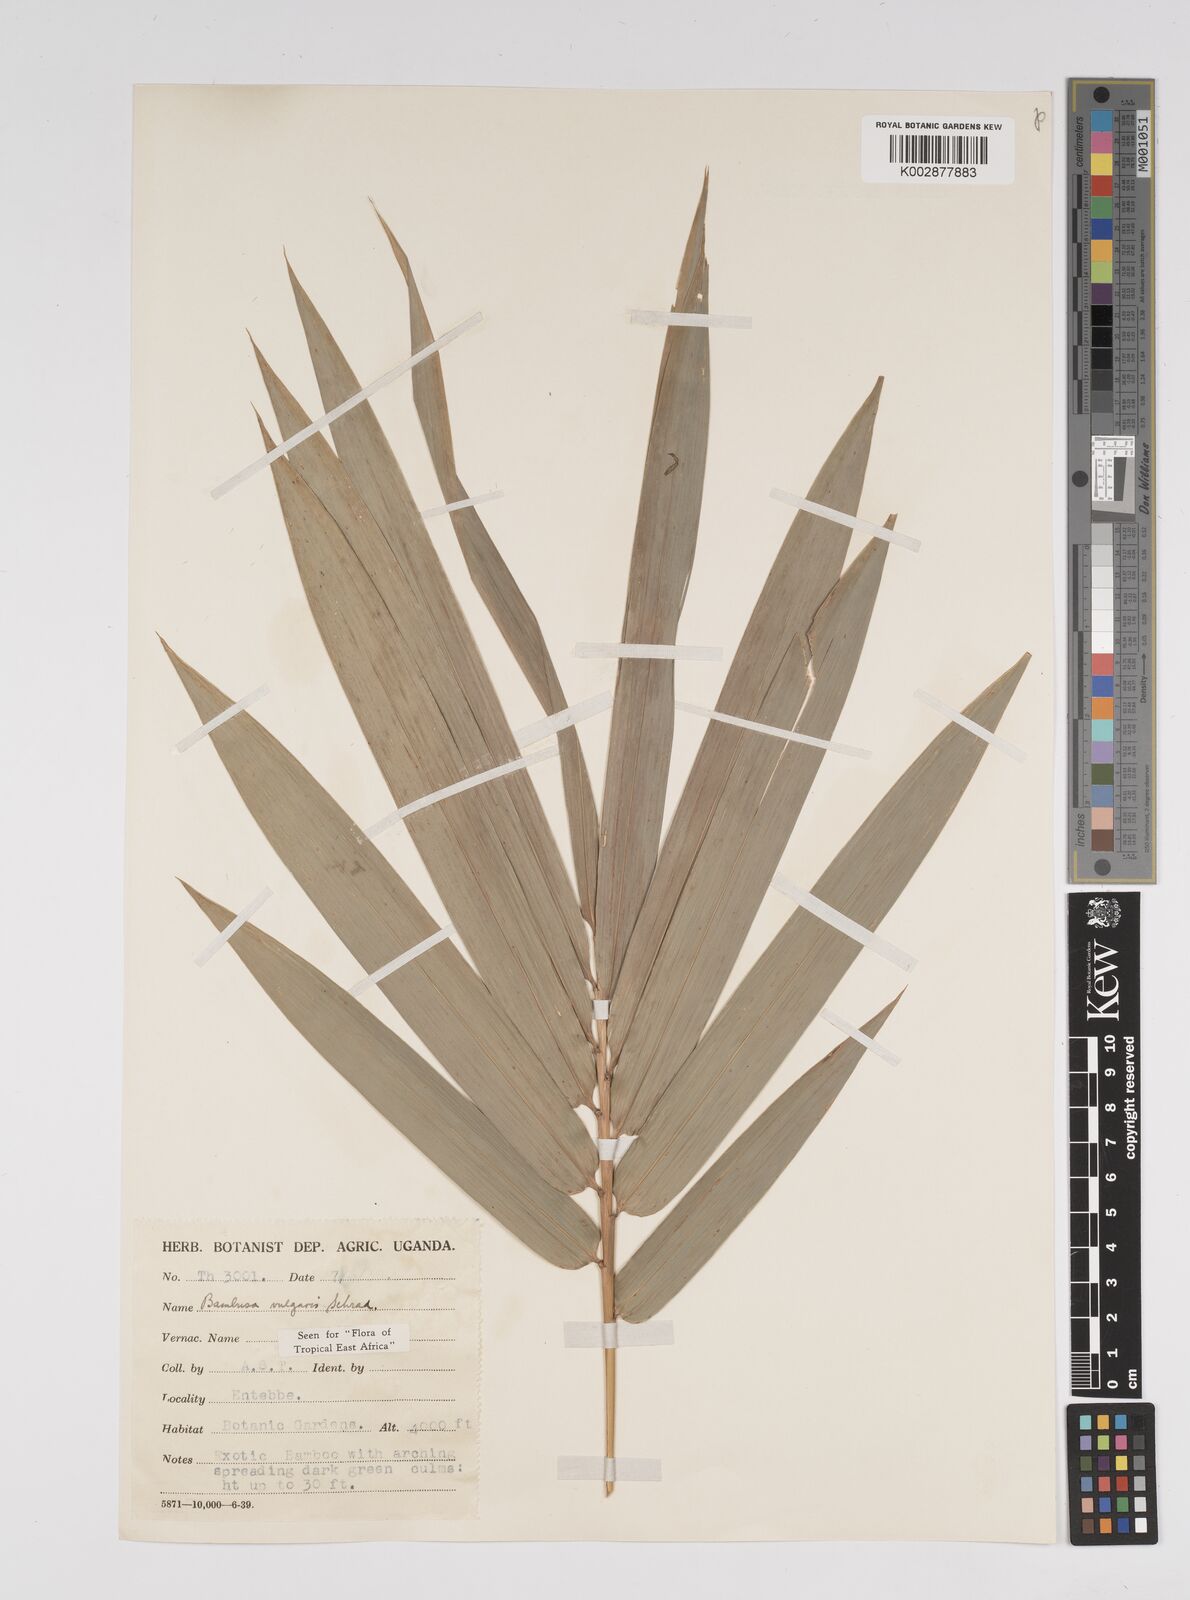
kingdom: Plantae
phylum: Tracheophyta
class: Liliopsida
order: Poales
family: Poaceae
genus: Bambusa
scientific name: Bambusa balcooa
